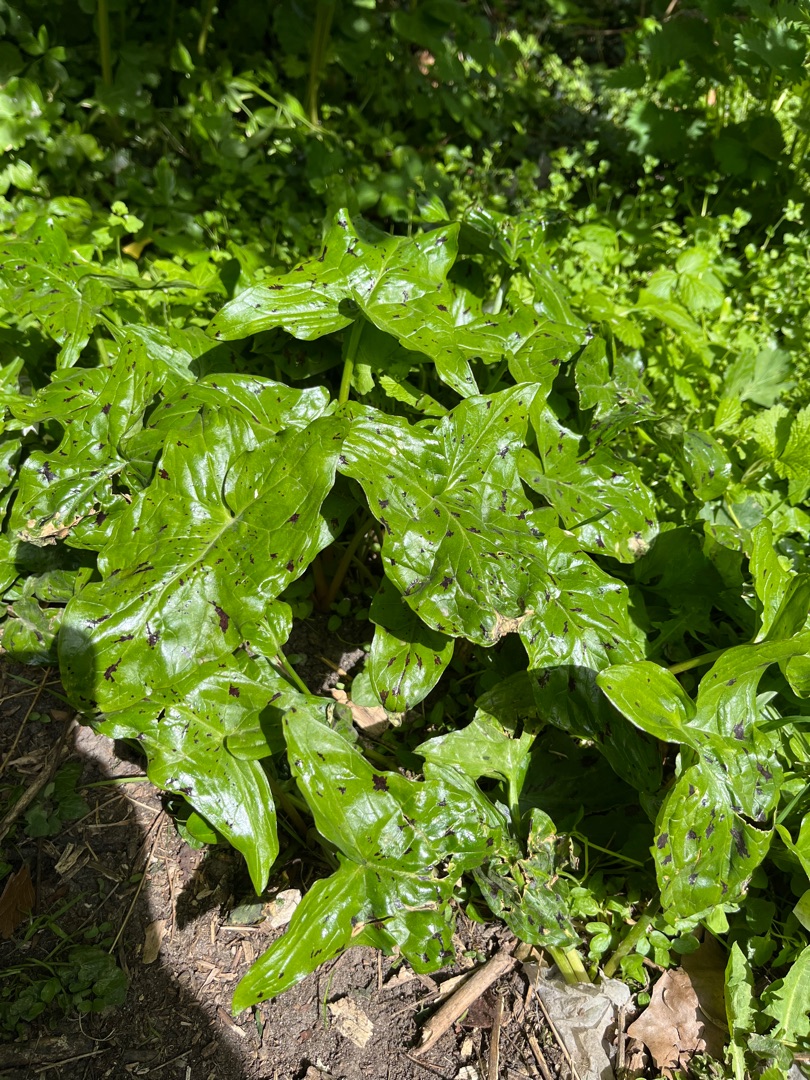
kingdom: Plantae
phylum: Tracheophyta
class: Liliopsida
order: Alismatales
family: Araceae
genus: Arum
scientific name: Arum maculatum
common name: Plettet arum
